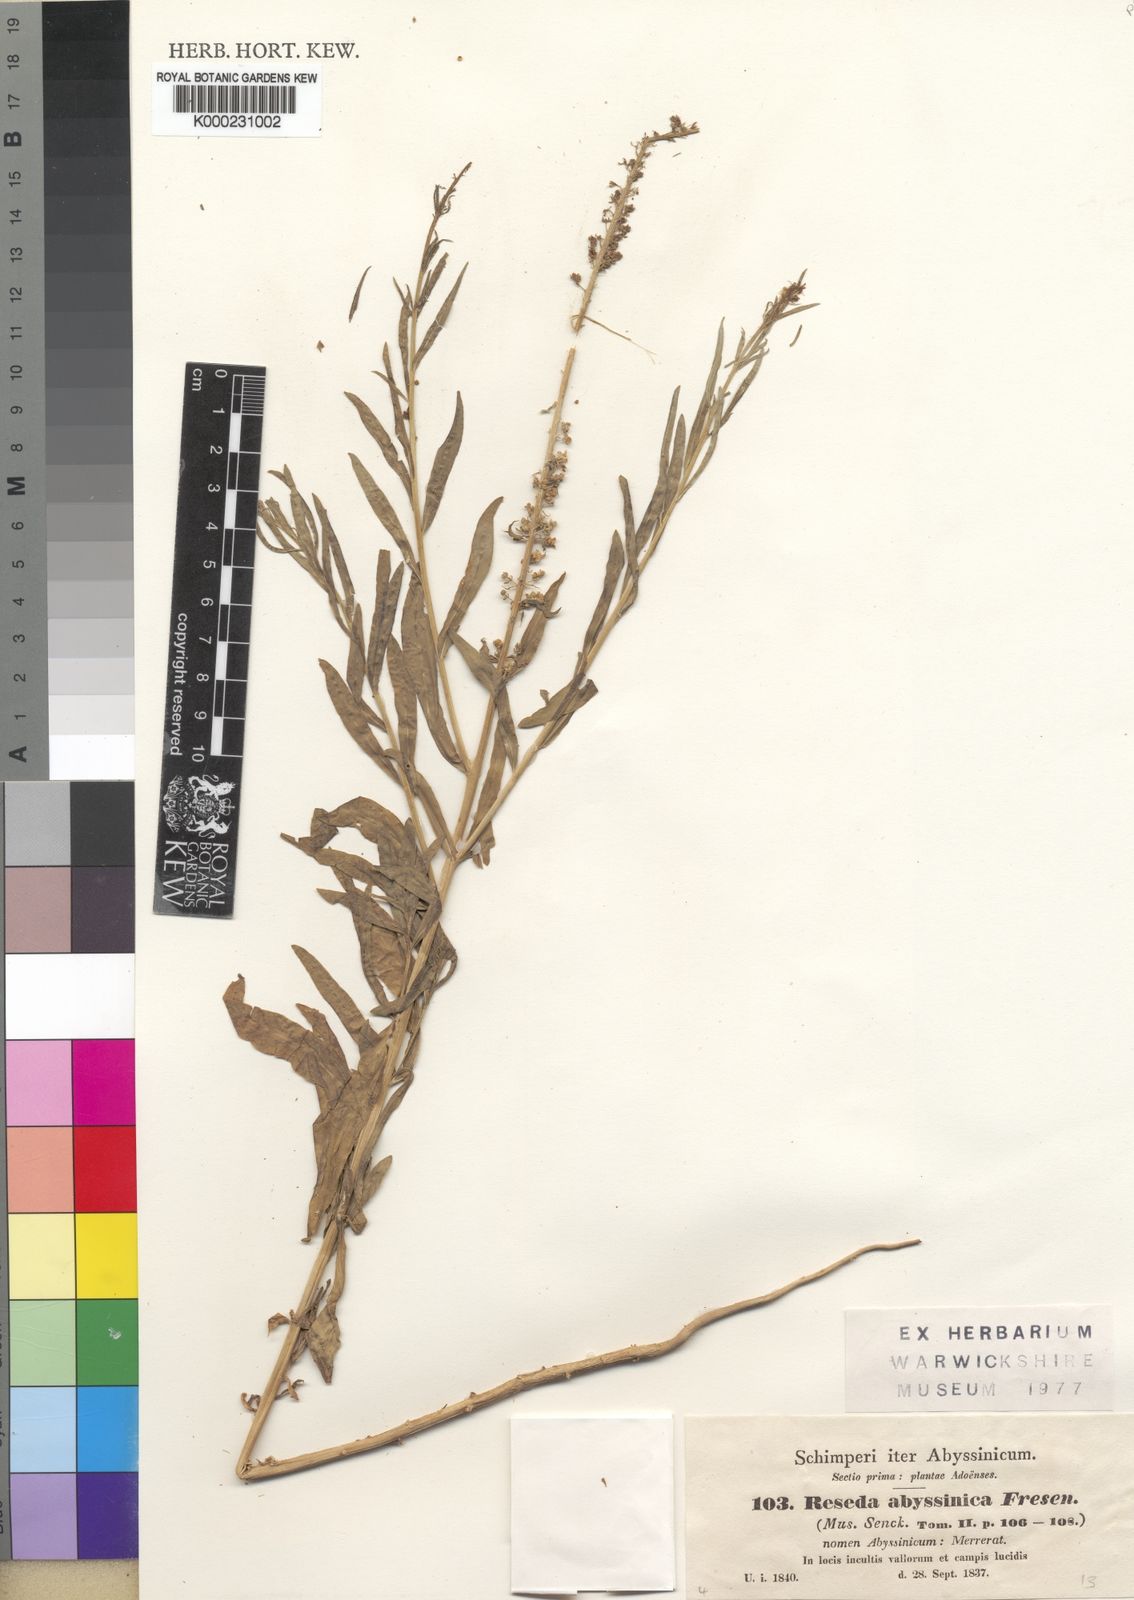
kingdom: Plantae
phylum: Tracheophyta
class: Magnoliopsida
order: Brassicales
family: Resedaceae
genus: Caylusea
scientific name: Caylusea abyssinica
